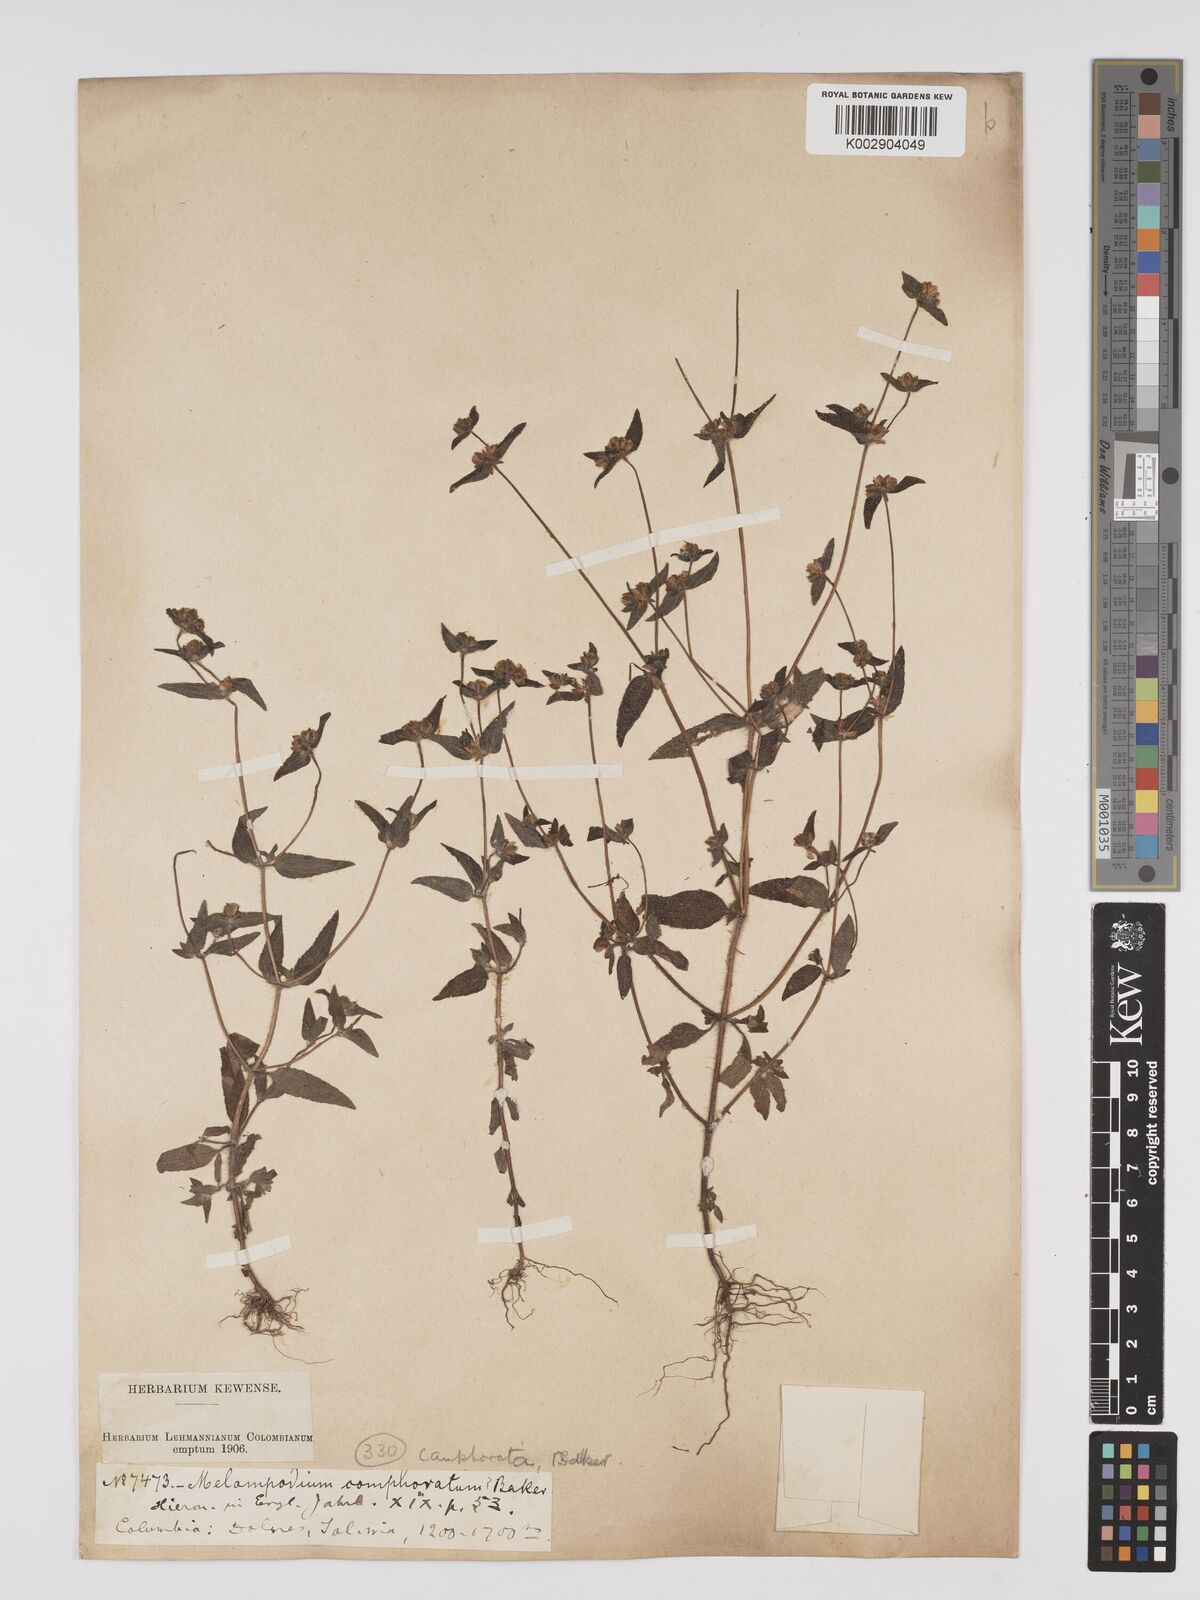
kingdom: Plantae
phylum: Tracheophyta
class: Magnoliopsida
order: Asterales
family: Asteraceae
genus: Unxia
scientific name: Unxia camphorata
